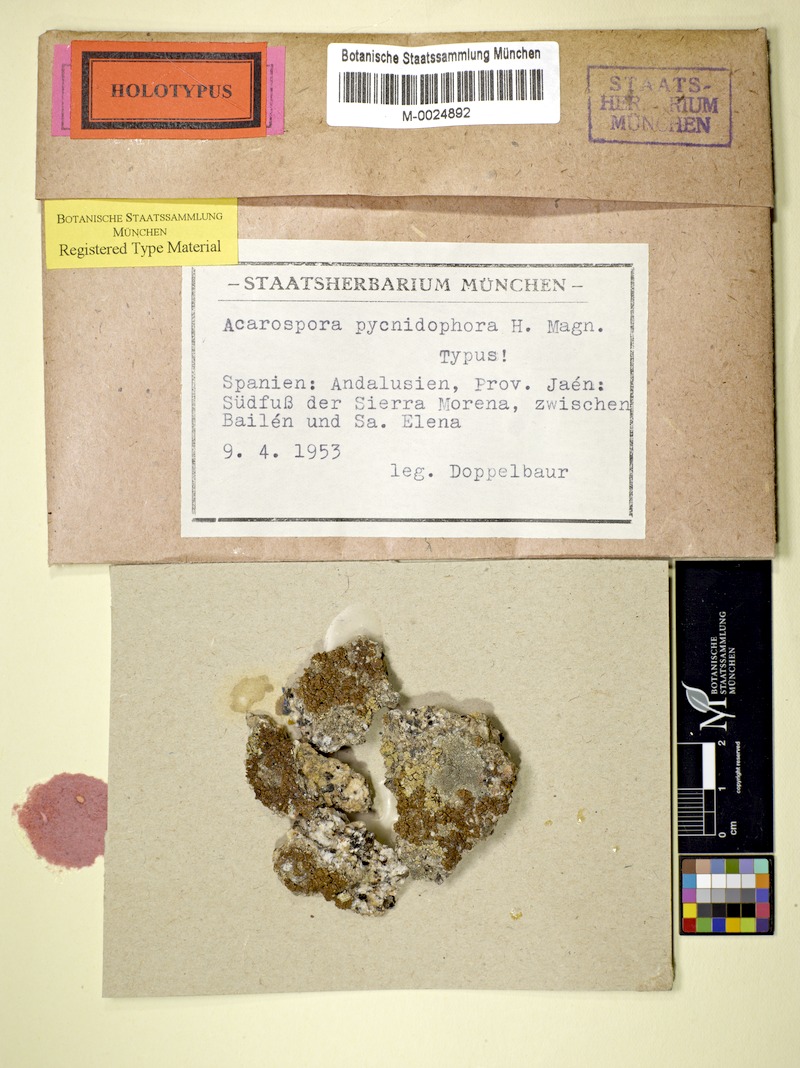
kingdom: Fungi
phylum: Ascomycota
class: Lecanoromycetes
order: Acarosporales
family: Acarosporaceae
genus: Acarospora
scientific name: Acarospora pycnidiophora
